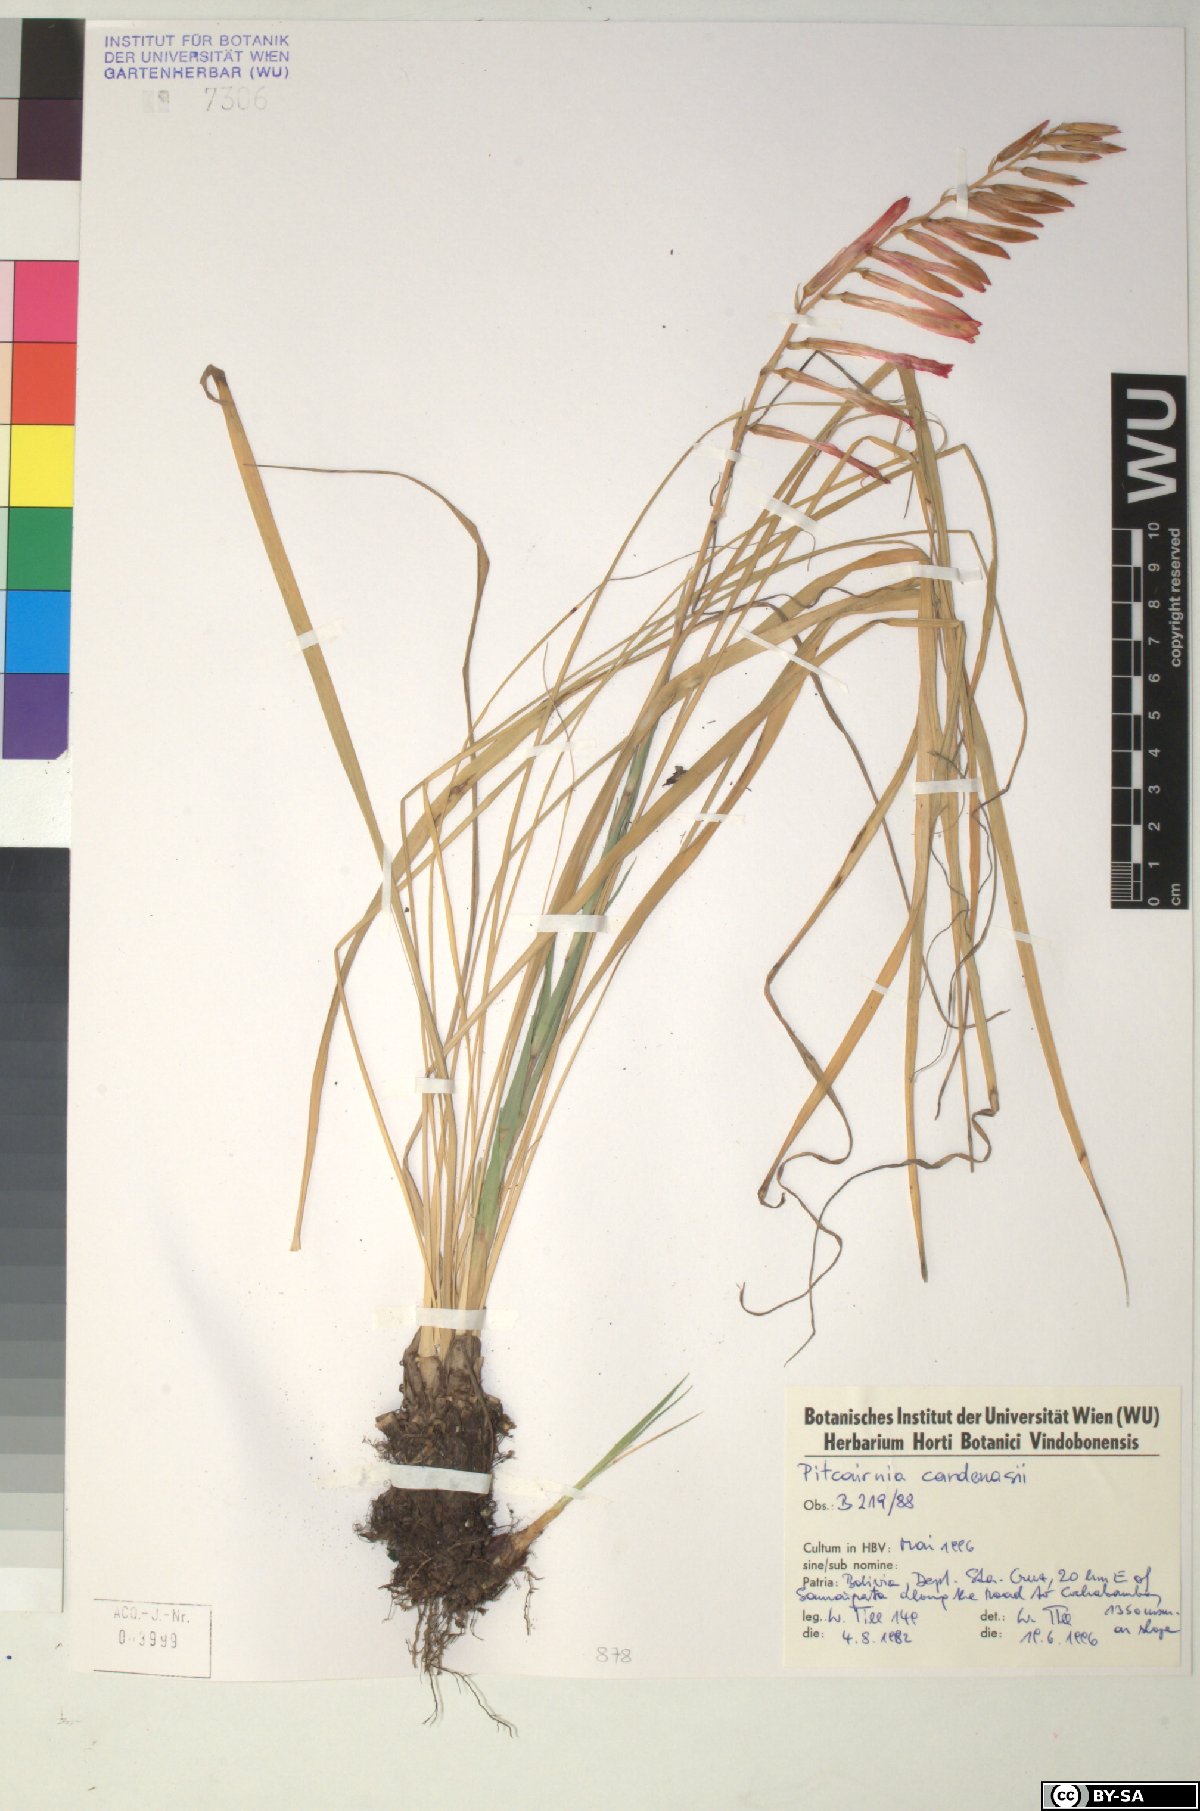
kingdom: Plantae
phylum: Tracheophyta
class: Liliopsida
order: Poales
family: Bromeliaceae
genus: Pitcairnia
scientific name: Pitcairnia cardenasii
